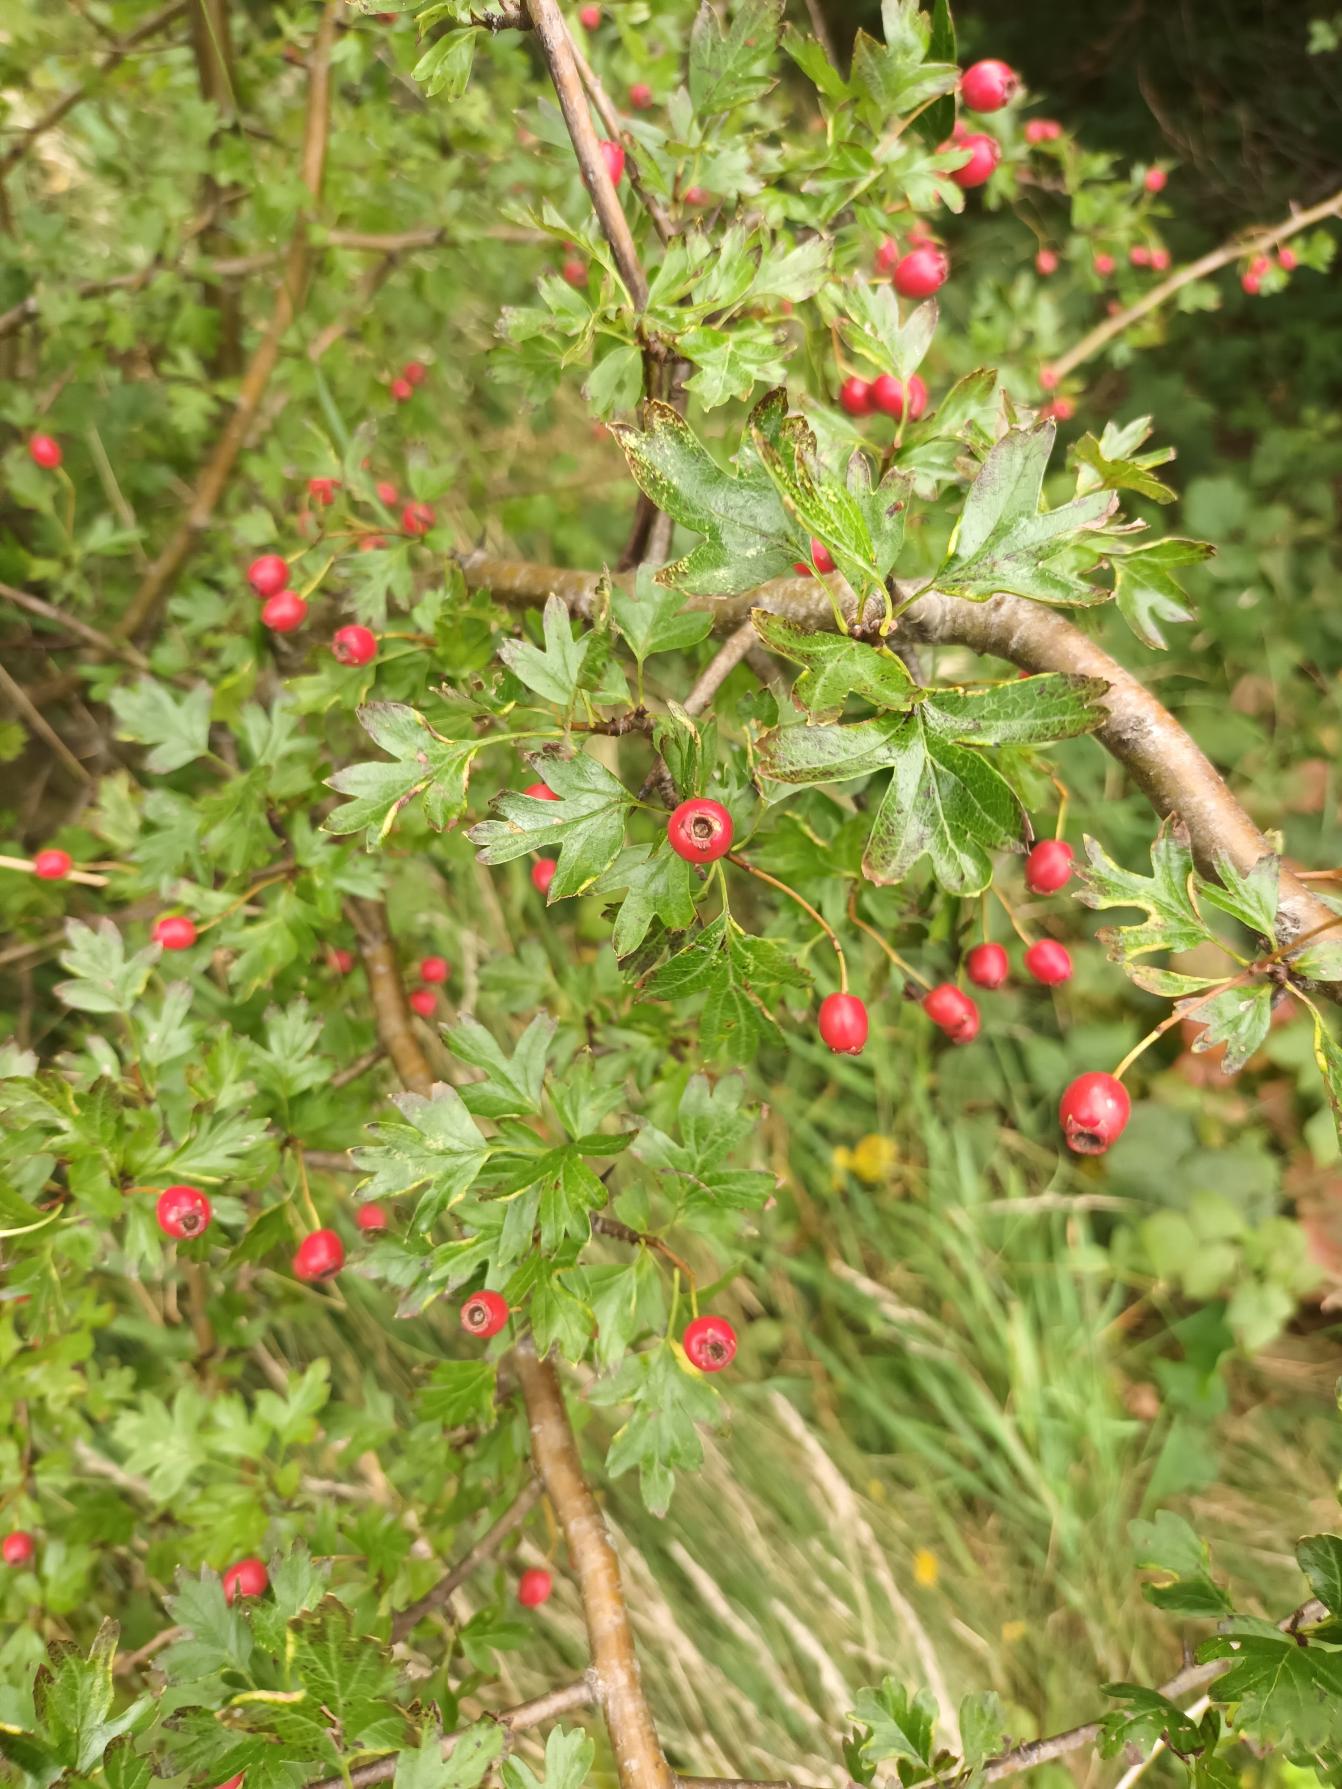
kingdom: Plantae
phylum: Tracheophyta
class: Magnoliopsida
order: Rosales
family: Rosaceae
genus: Crataegus
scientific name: Crataegus monogyna
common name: Engriflet hvidtjørn
